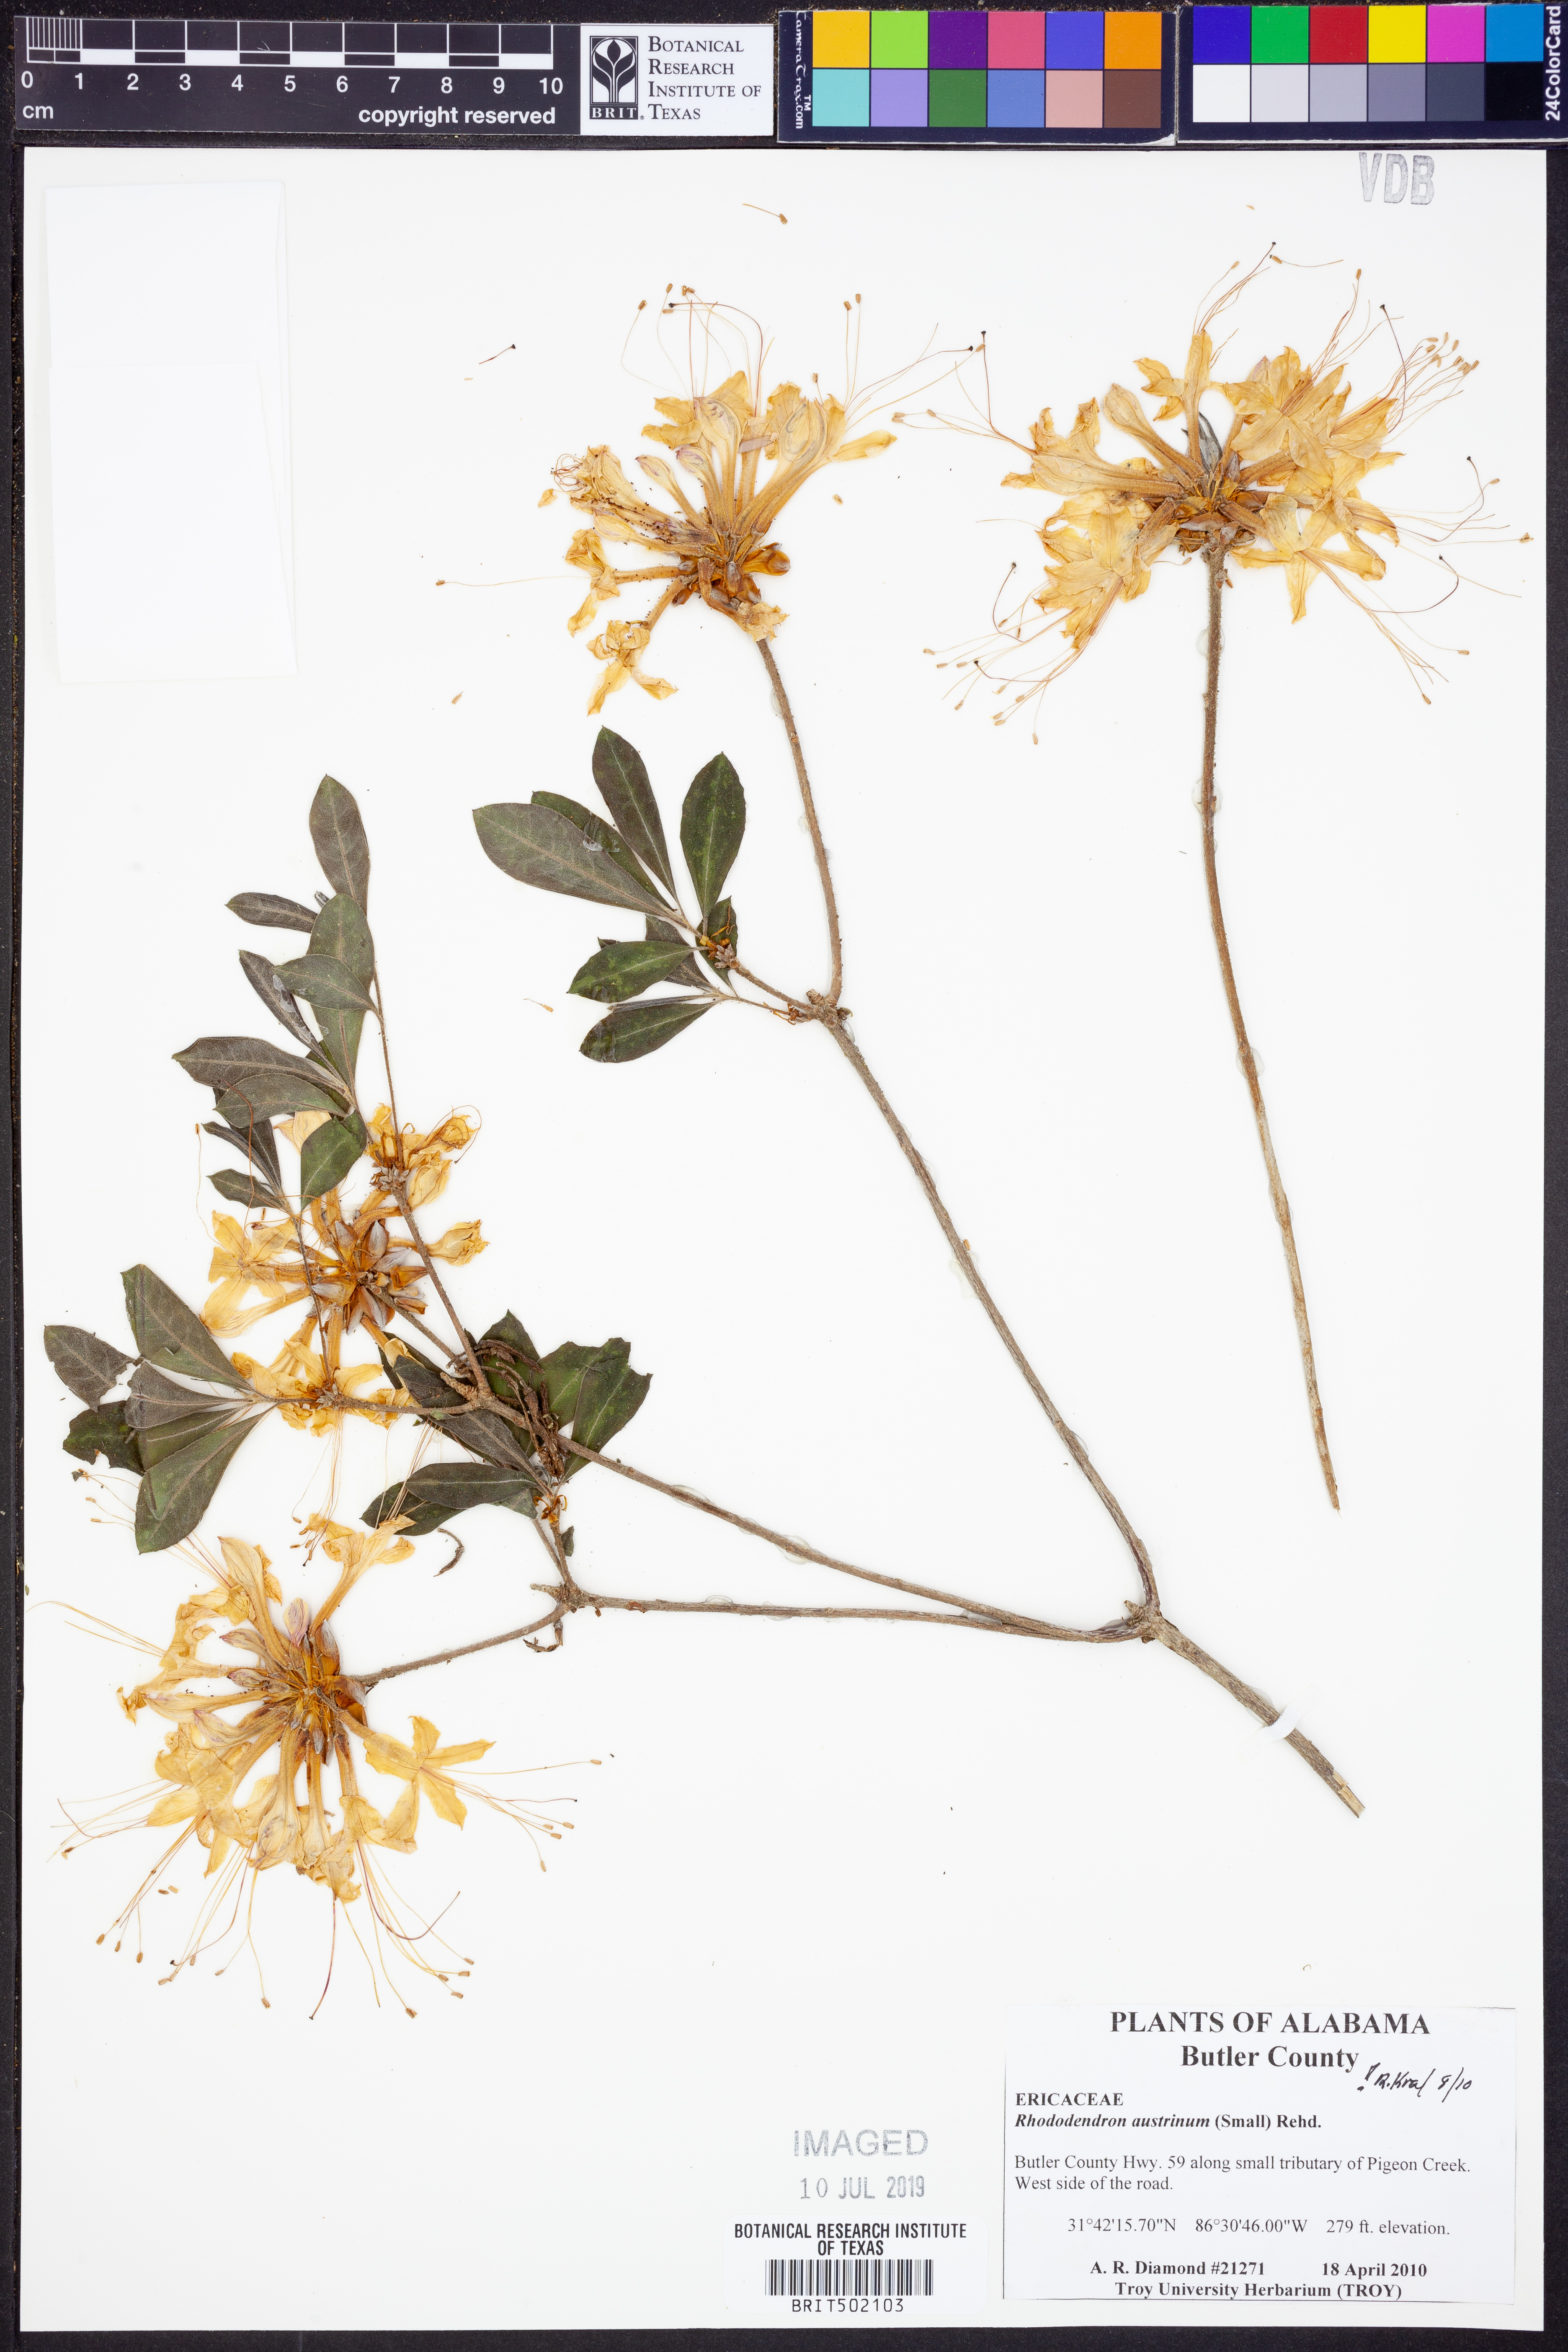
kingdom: Plantae
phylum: Tracheophyta
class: Magnoliopsida
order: Ericales
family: Ericaceae
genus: Rhododendron
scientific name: Rhododendron austrinum
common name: Florida azalea
